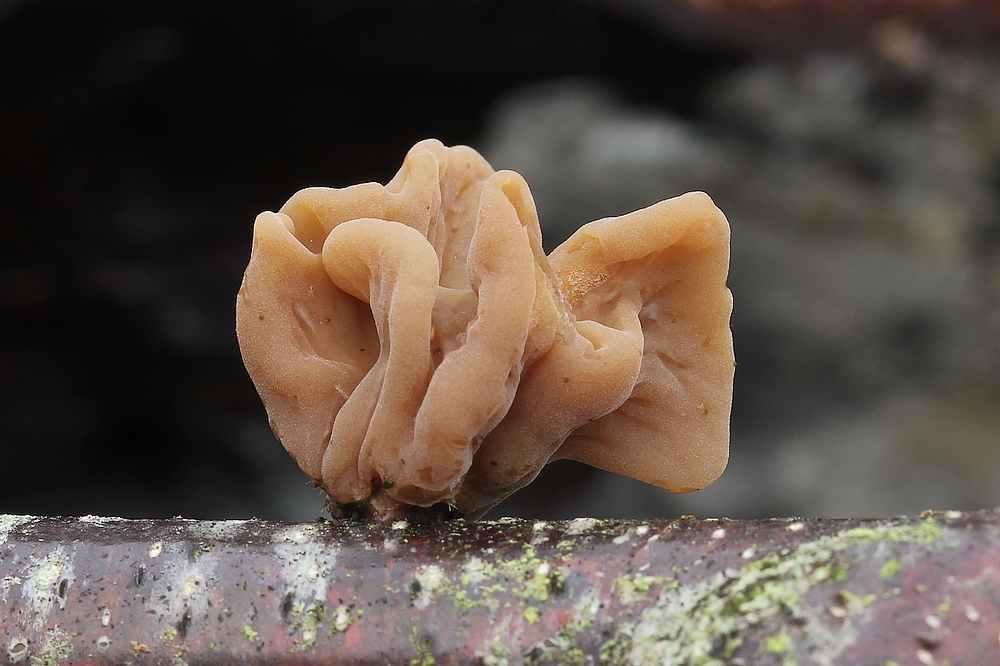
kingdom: Fungi
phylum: Basidiomycota
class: Agaricomycetes
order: Agaricales
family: Typhulaceae
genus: Typhula
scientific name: Typhula contorta
